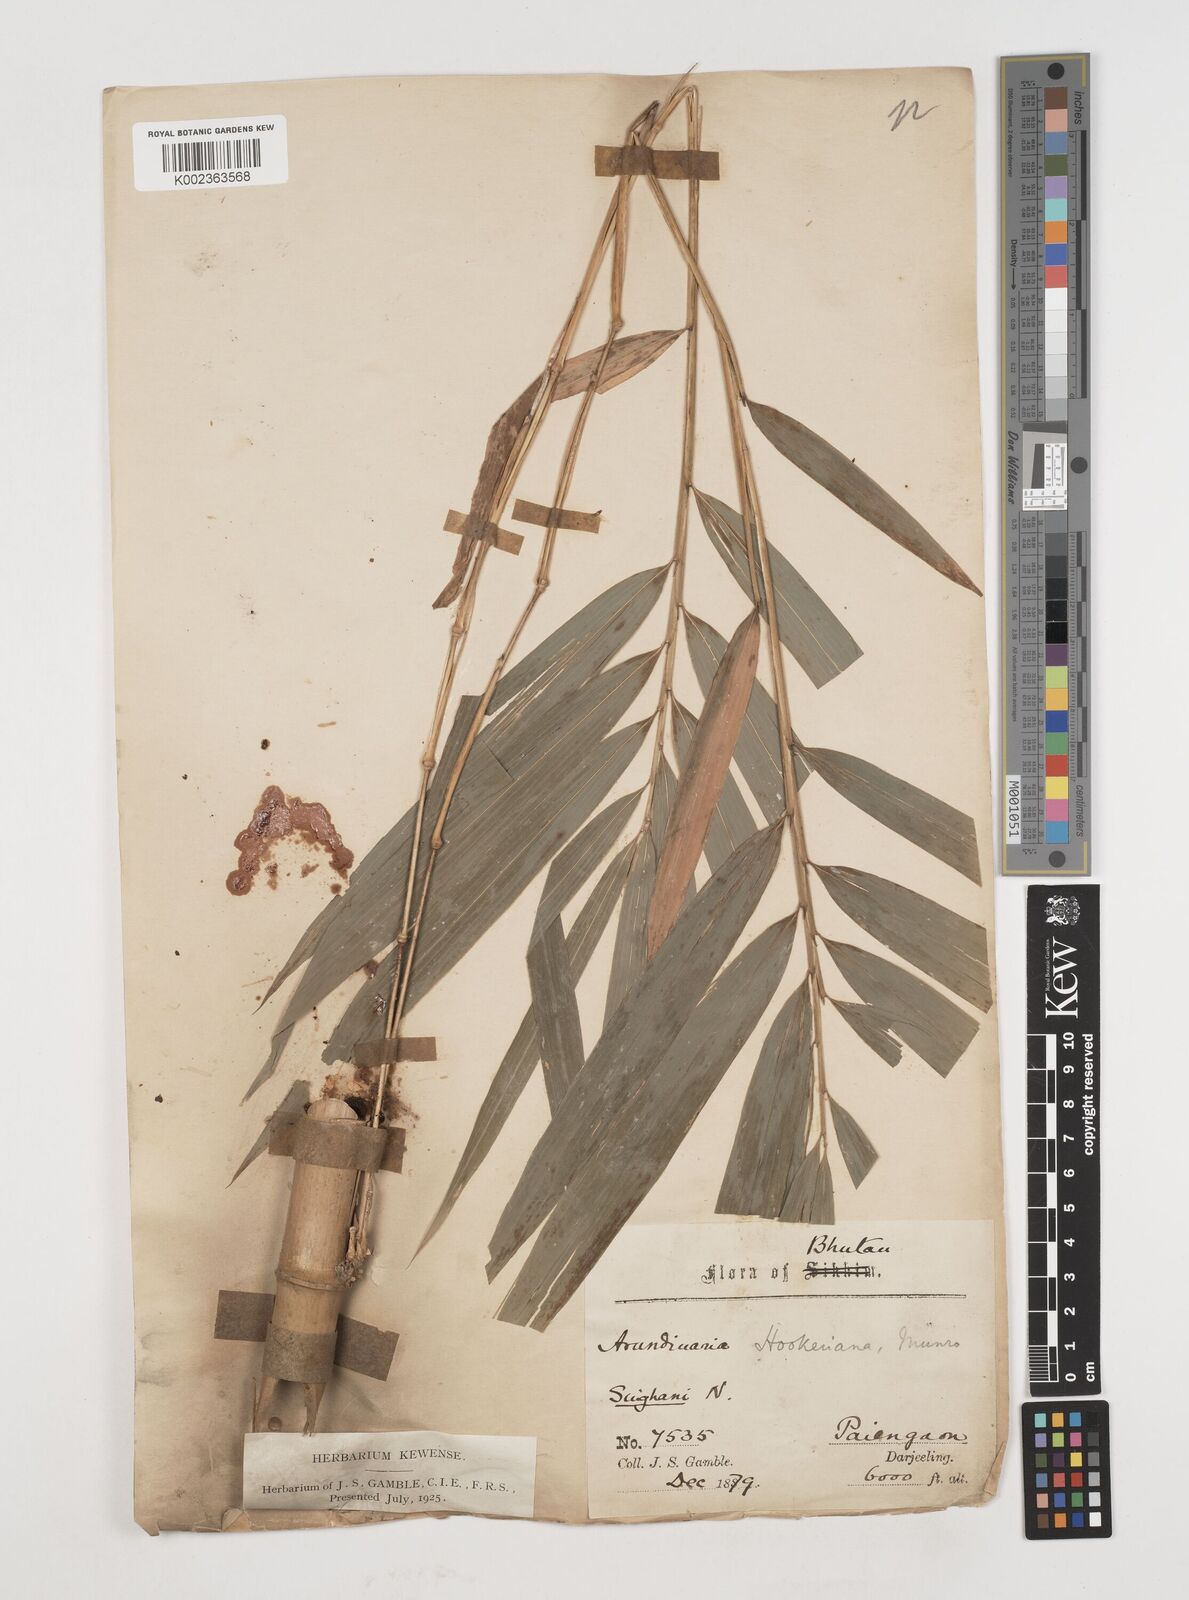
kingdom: Plantae
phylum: Tracheophyta
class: Liliopsida
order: Poales
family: Poaceae
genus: Himalayacalamus
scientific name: Himalayacalamus hookerianus
